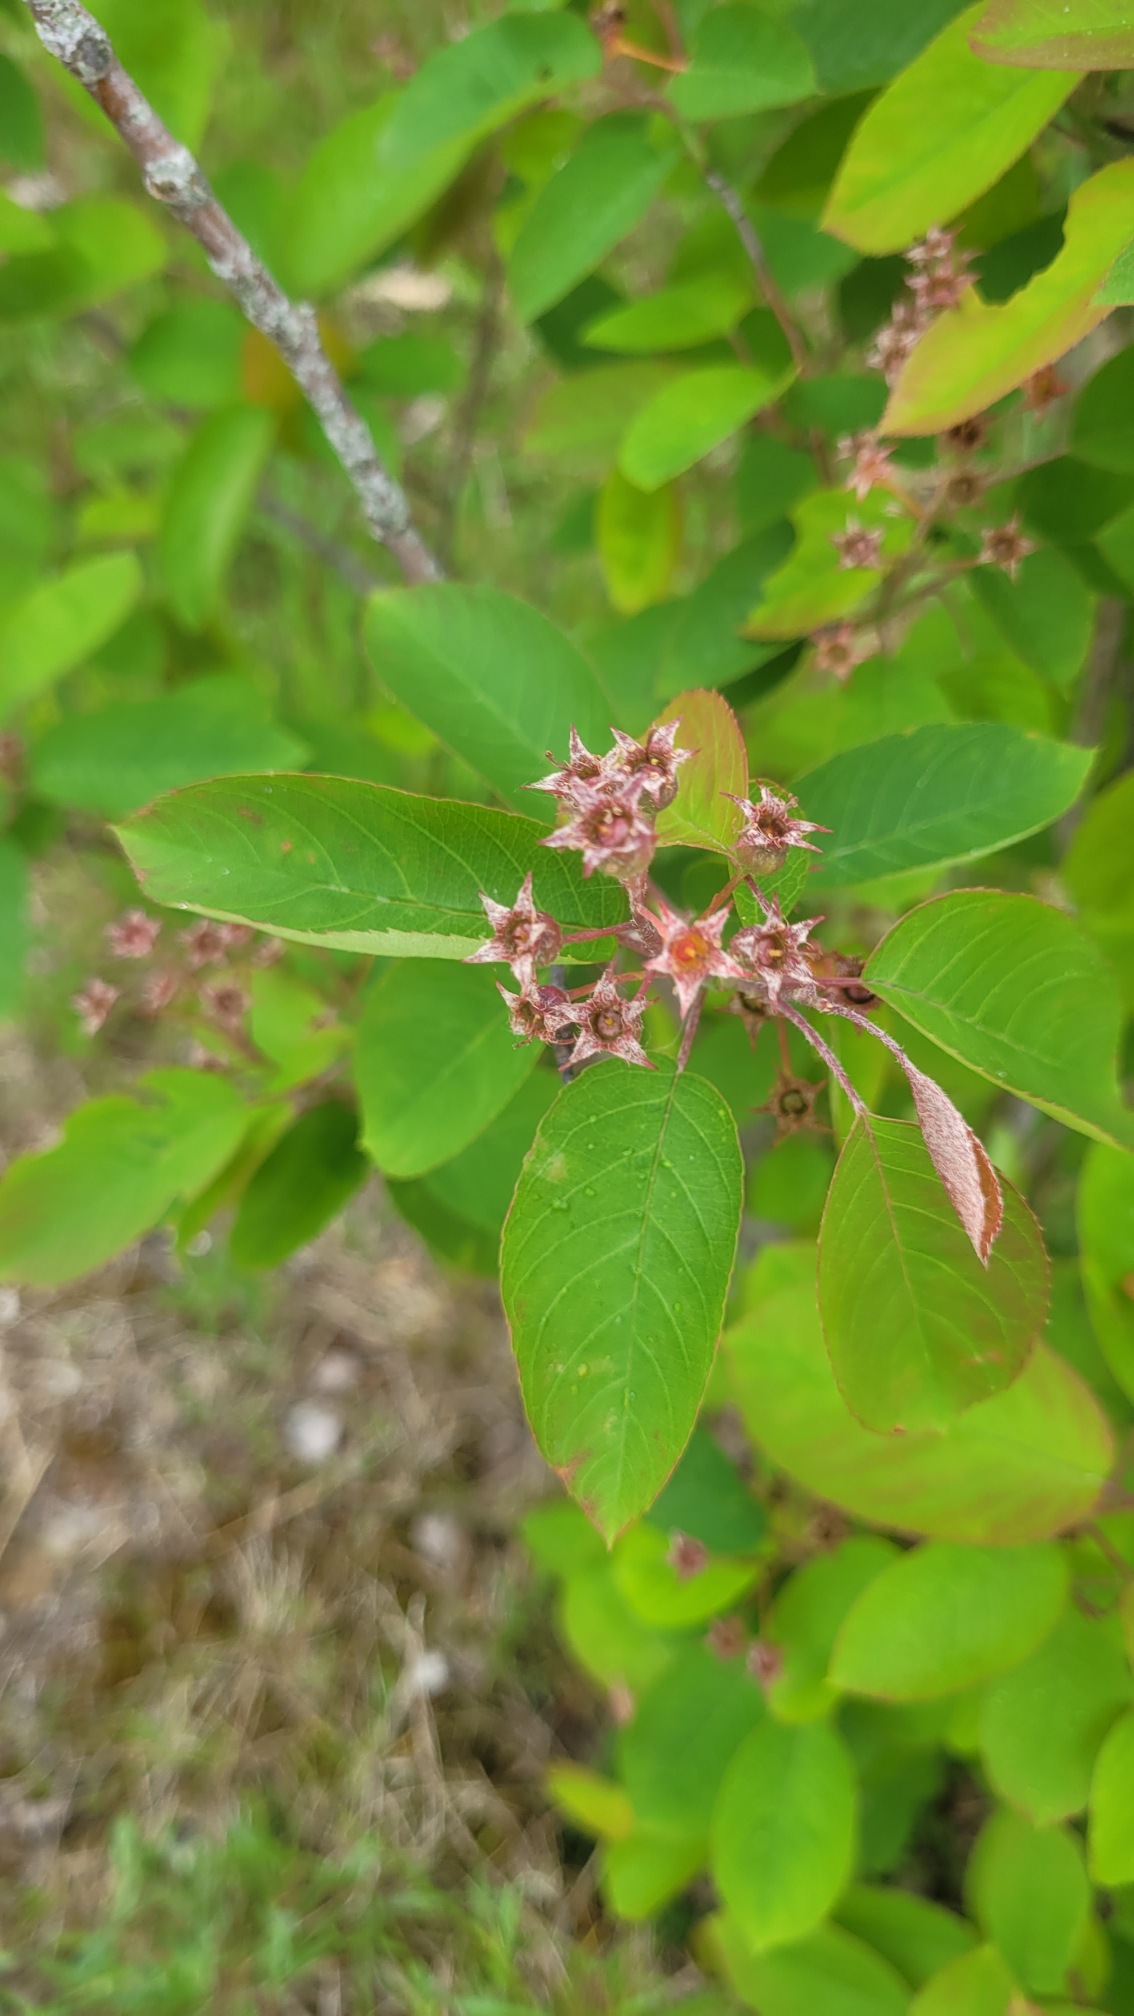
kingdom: Plantae
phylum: Tracheophyta
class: Magnoliopsida
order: Rosales
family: Rosaceae
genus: Amelanchier
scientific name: Amelanchier lamarckii
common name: Bærmispel
